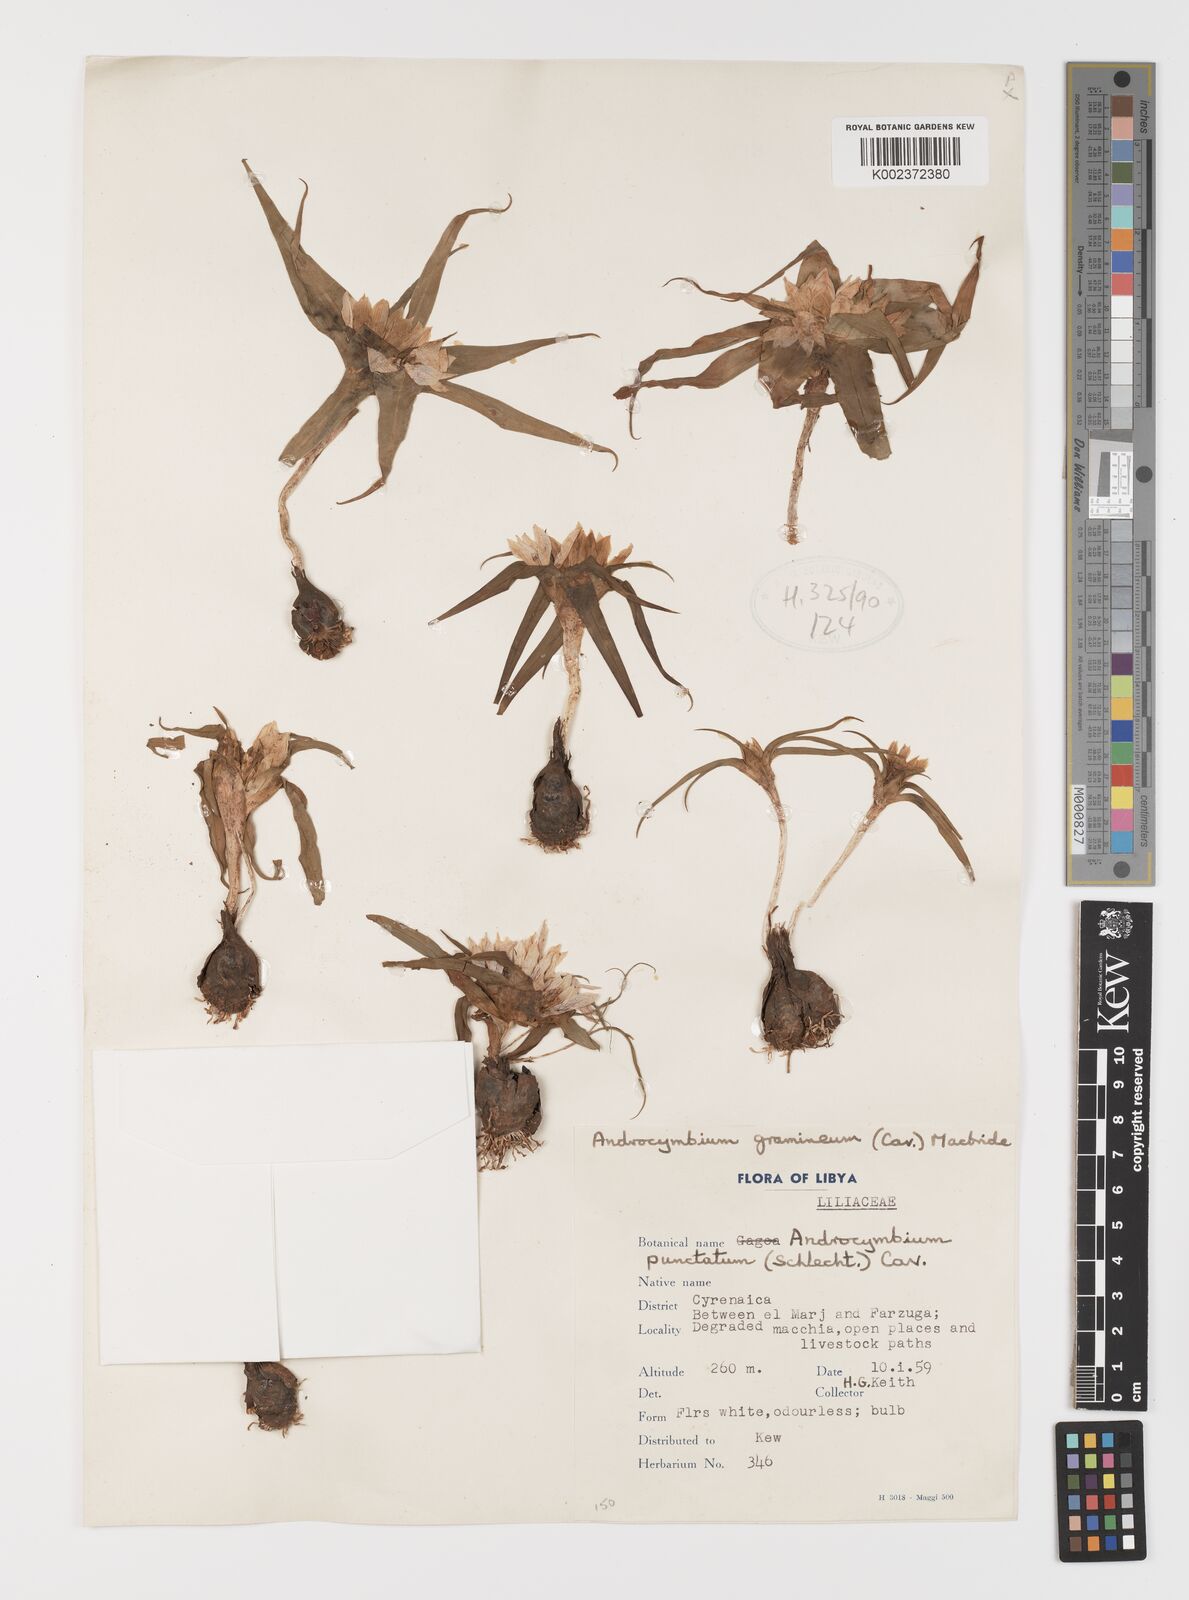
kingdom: Plantae
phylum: Tracheophyta
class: Liliopsida
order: Liliales
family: Colchicaceae
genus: Colchicum
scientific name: Colchicum gramineum
